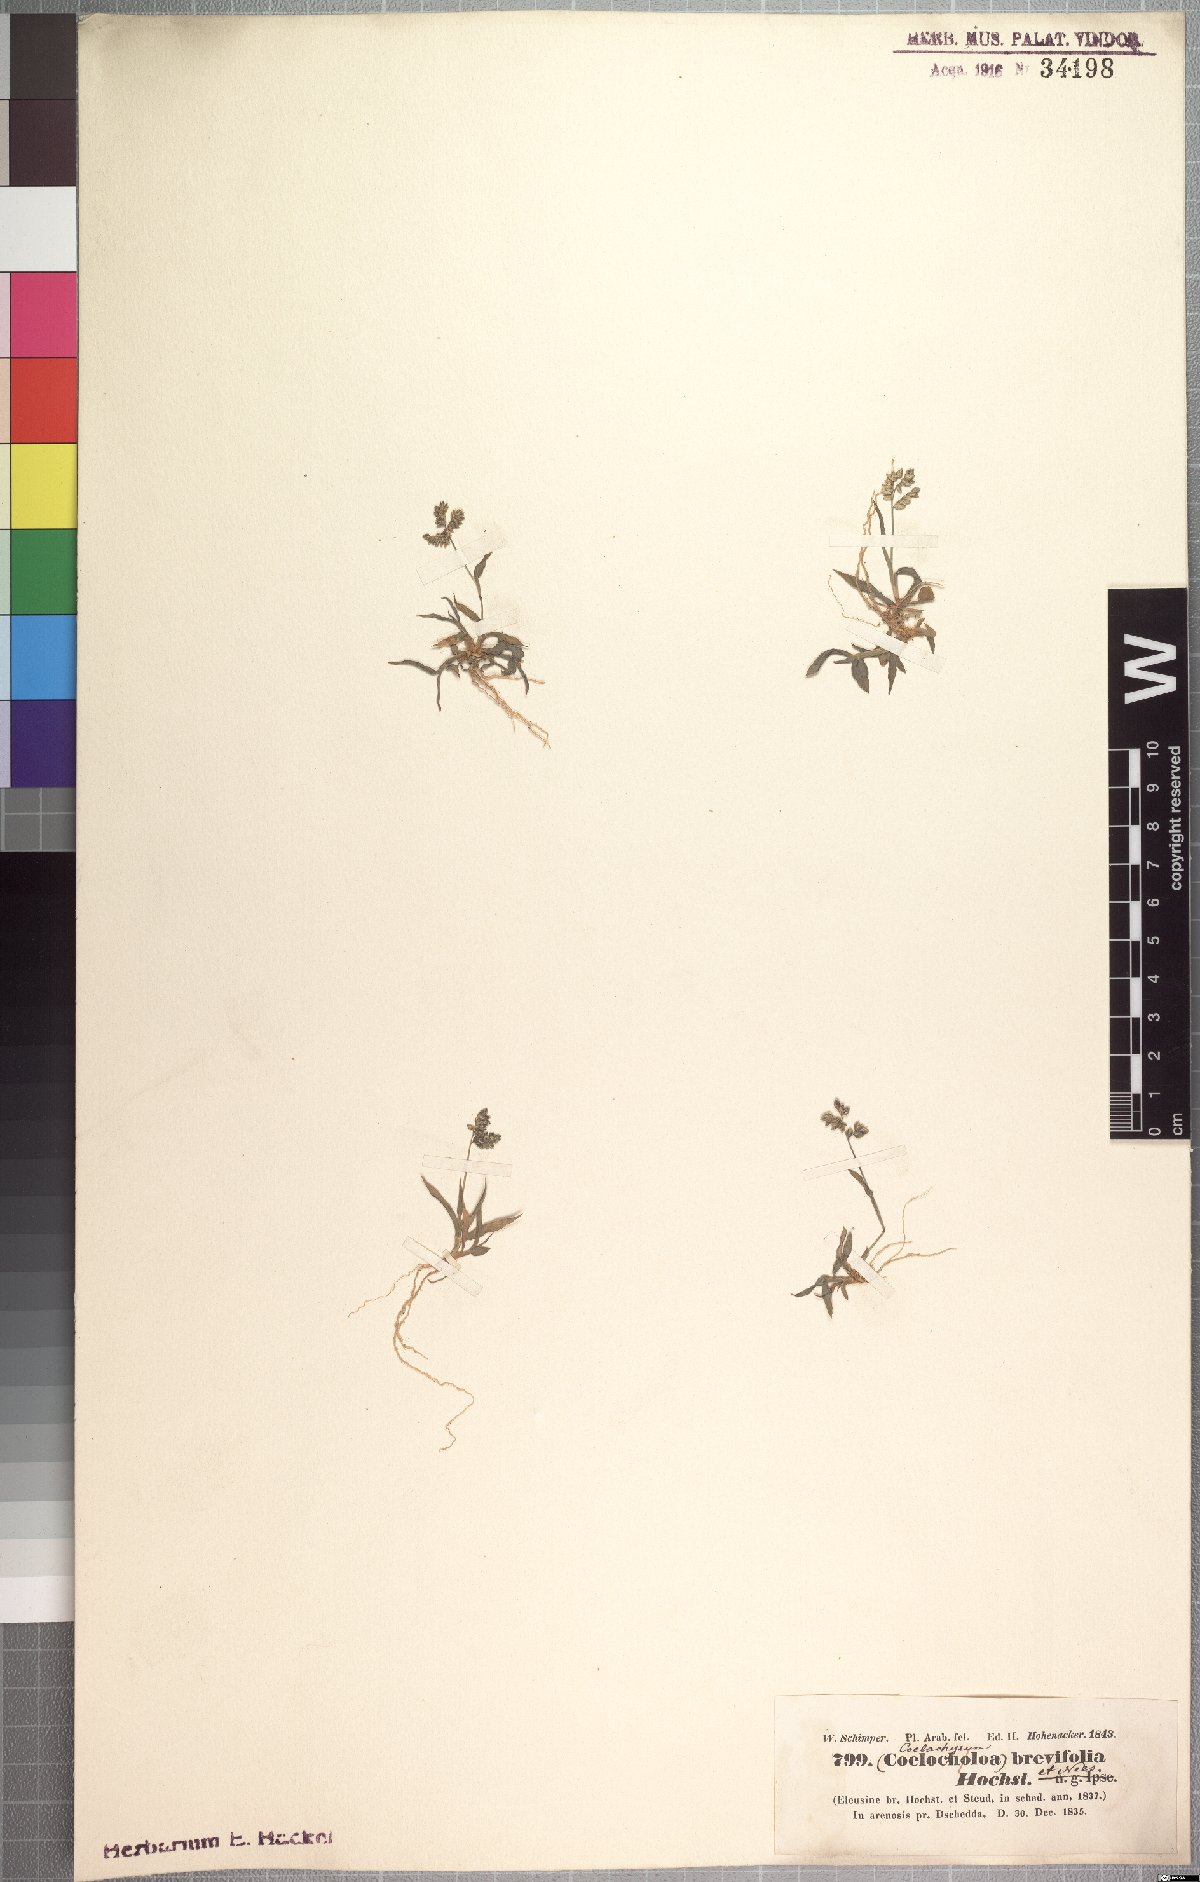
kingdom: Plantae
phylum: Tracheophyta
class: Liliopsida
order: Poales
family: Poaceae
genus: Coelachyrum
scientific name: Coelachyrum brevifolium
